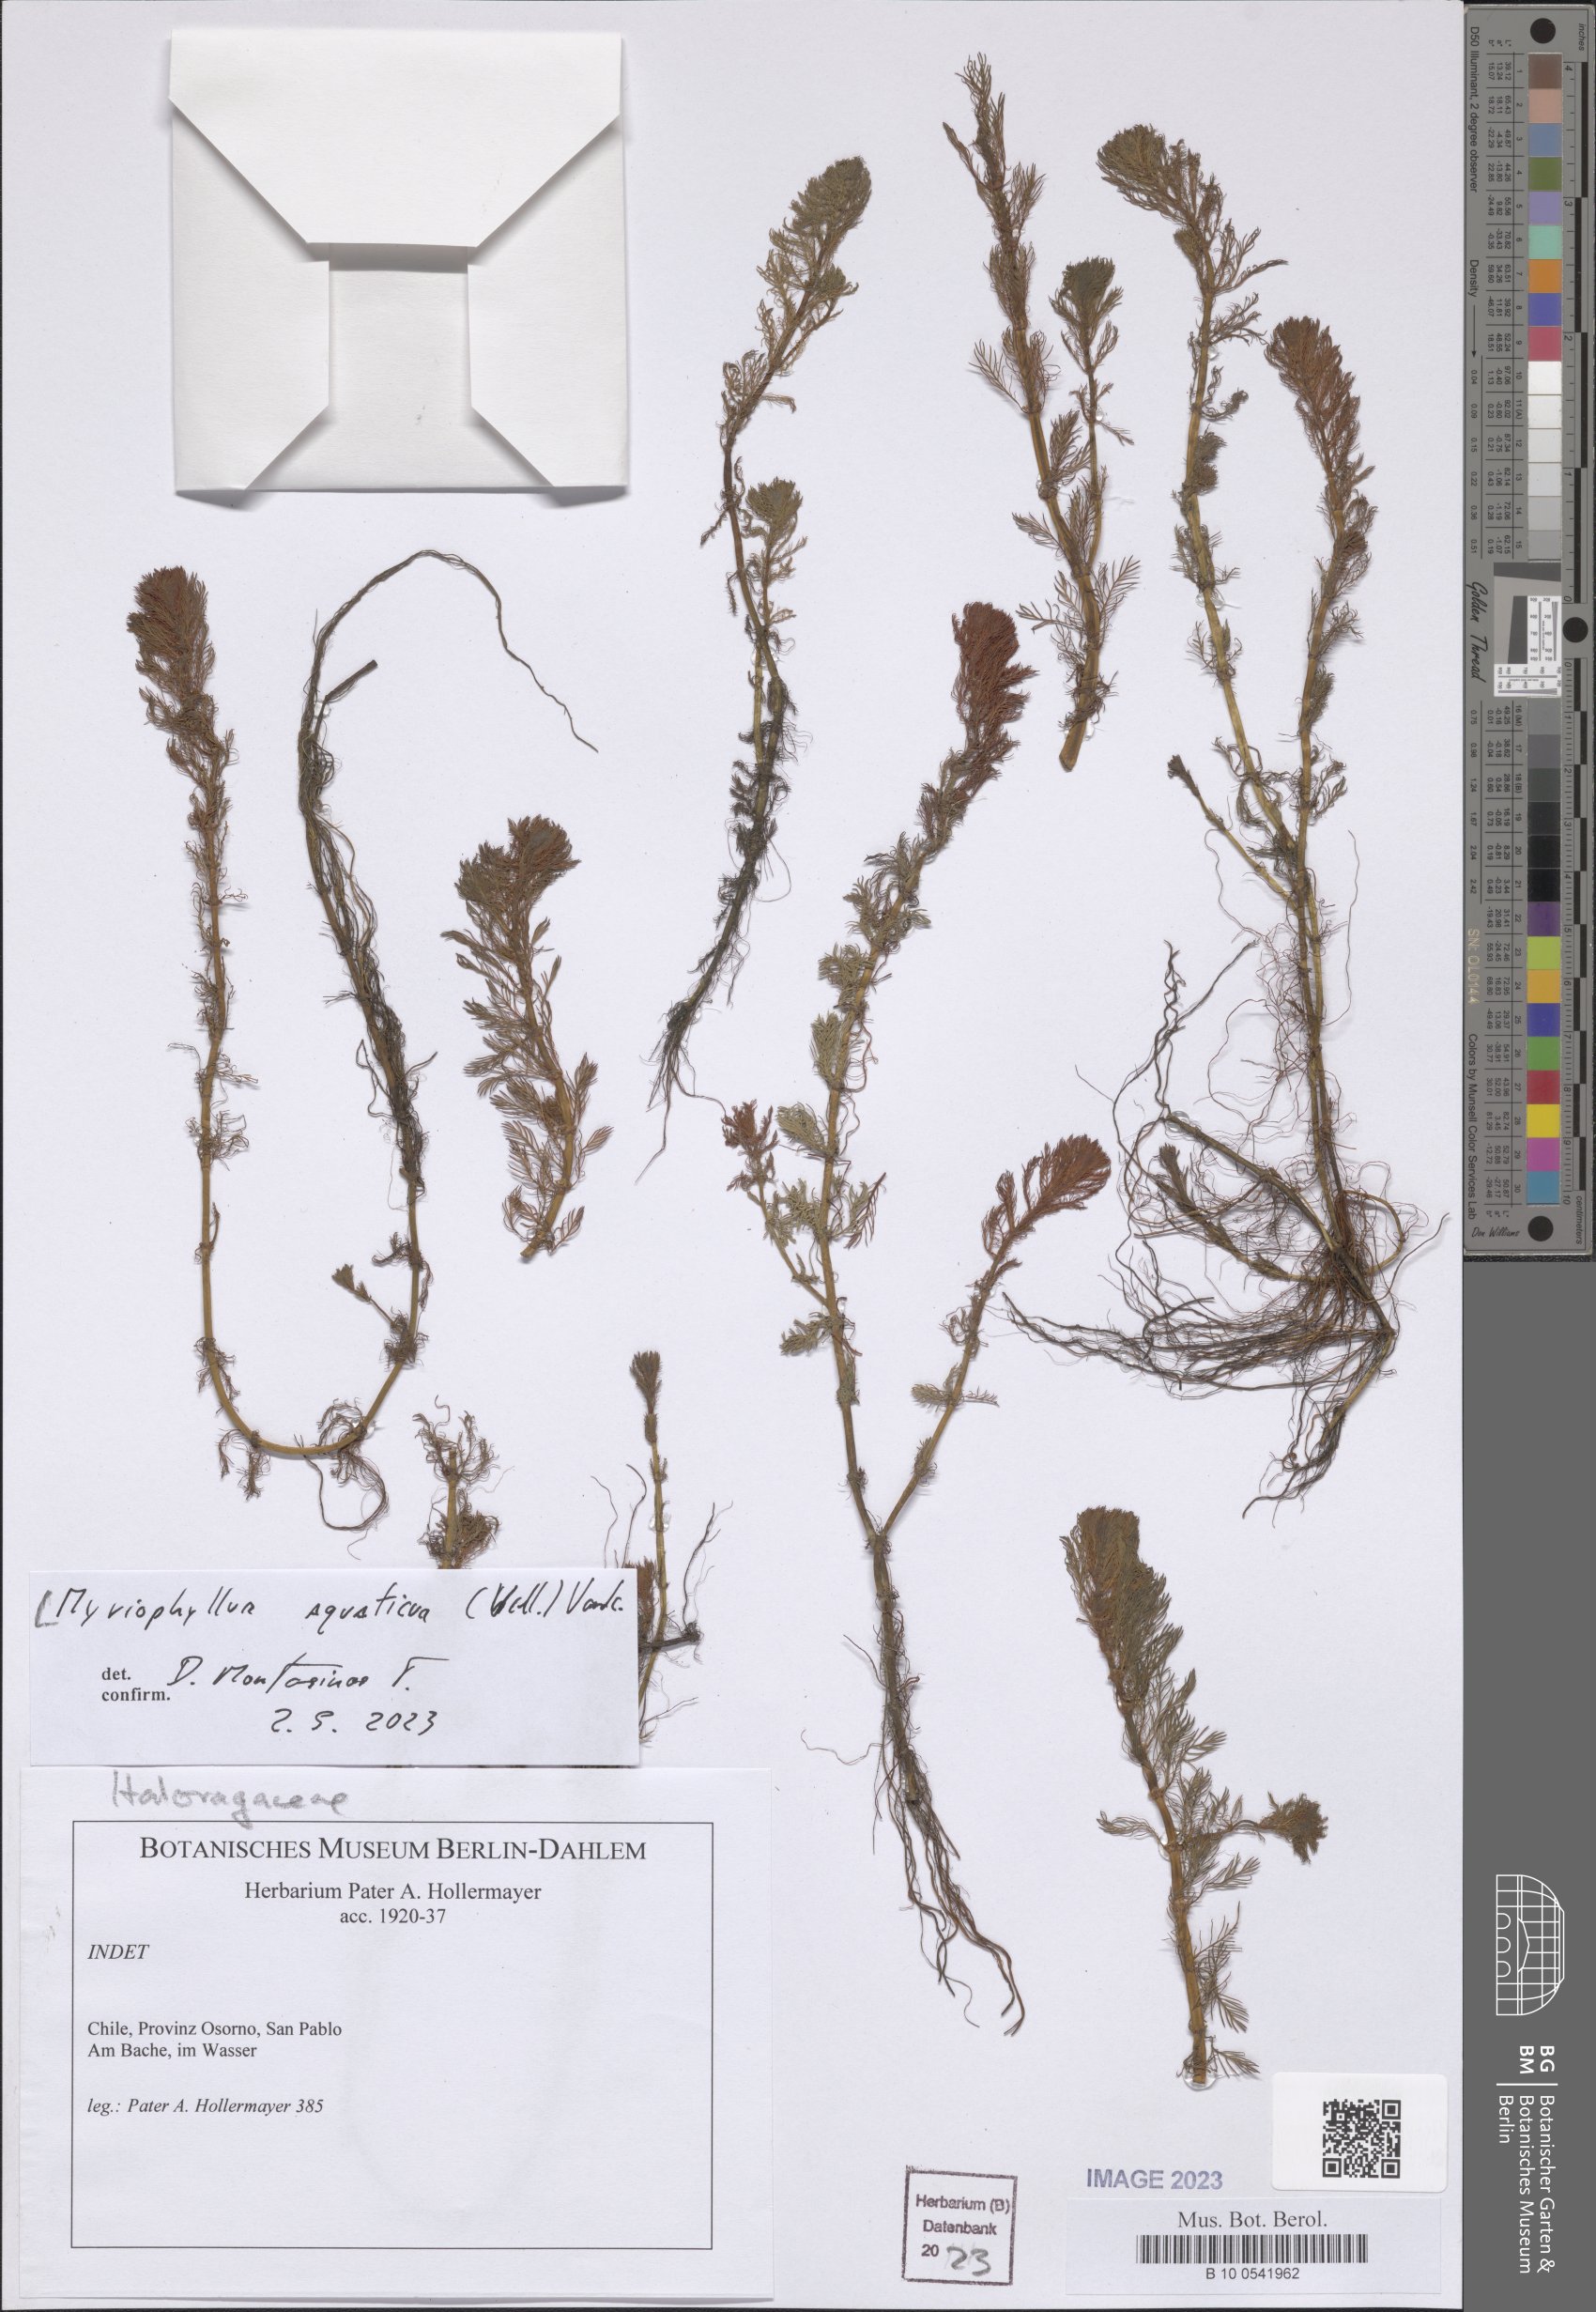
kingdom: Plantae
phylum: Tracheophyta
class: Magnoliopsida
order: Saxifragales
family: Haloragaceae
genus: Myriophyllum
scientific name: Myriophyllum aquaticum
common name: Parrot's feather
